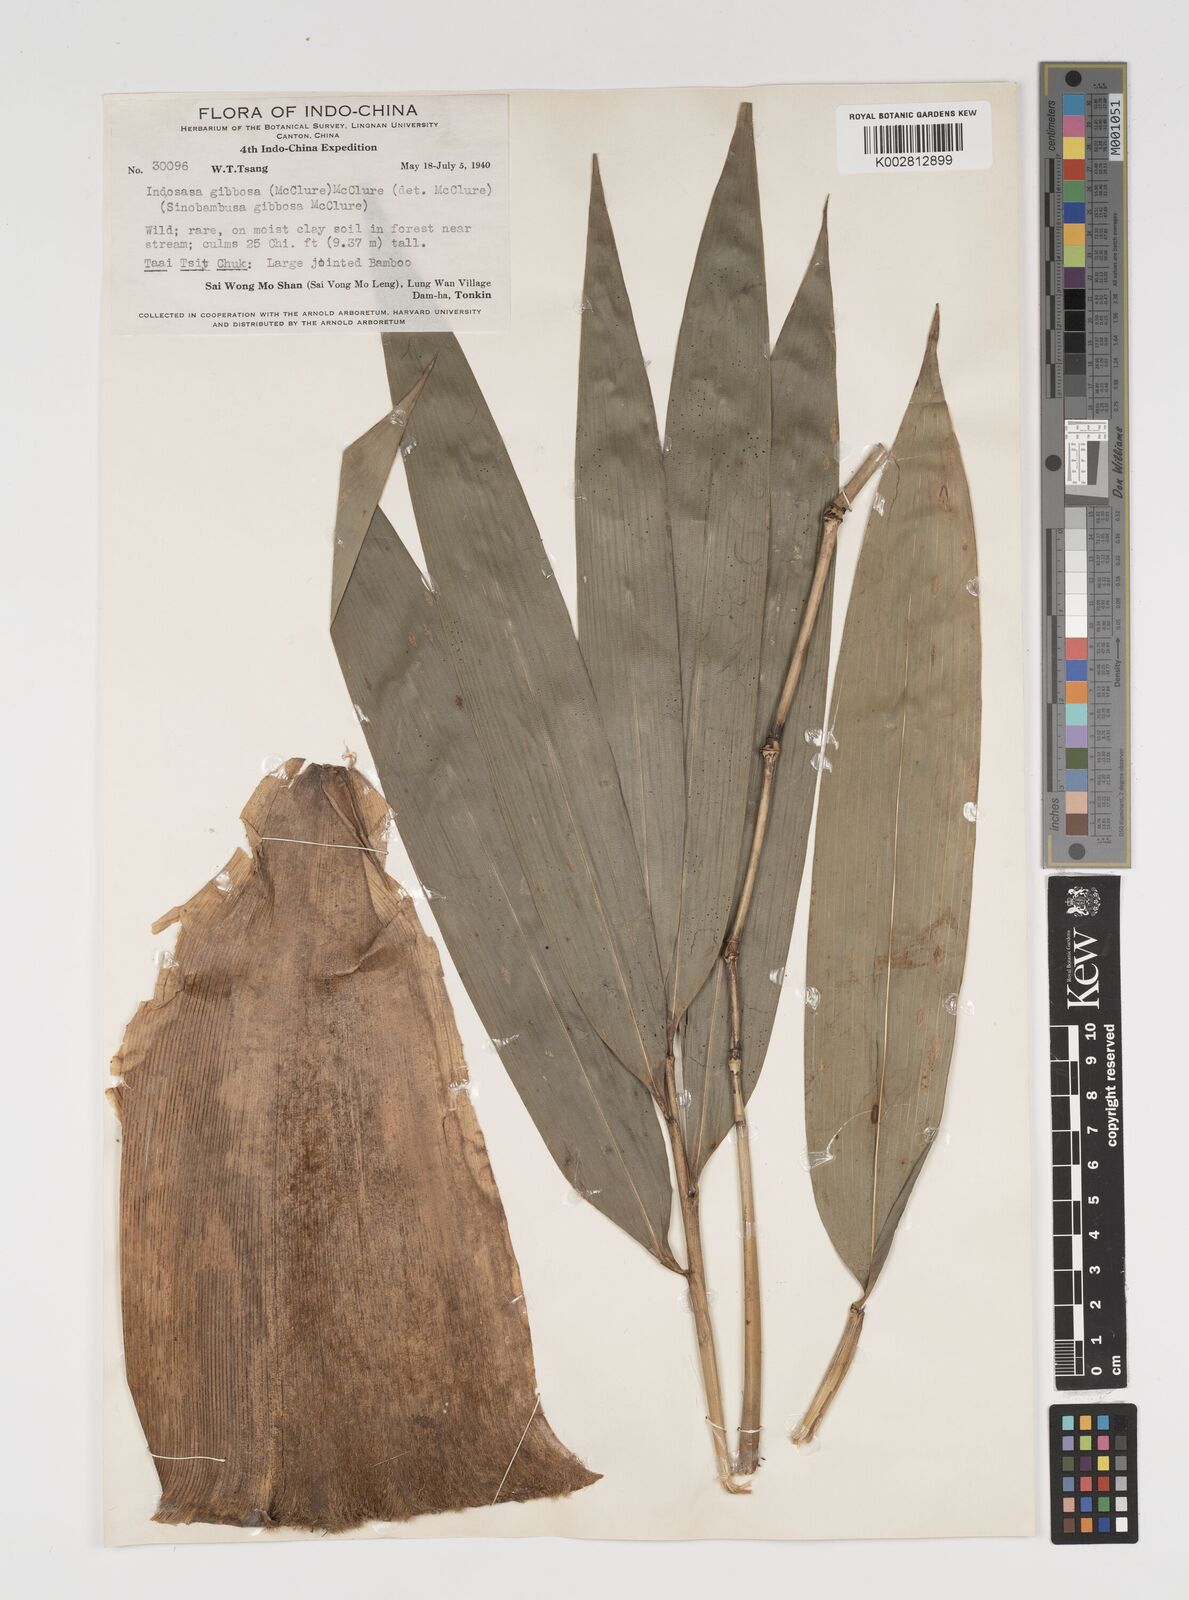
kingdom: Plantae
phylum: Tracheophyta
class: Liliopsida
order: Poales
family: Poaceae
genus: Indosasa
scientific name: Indosasa crassiflora
